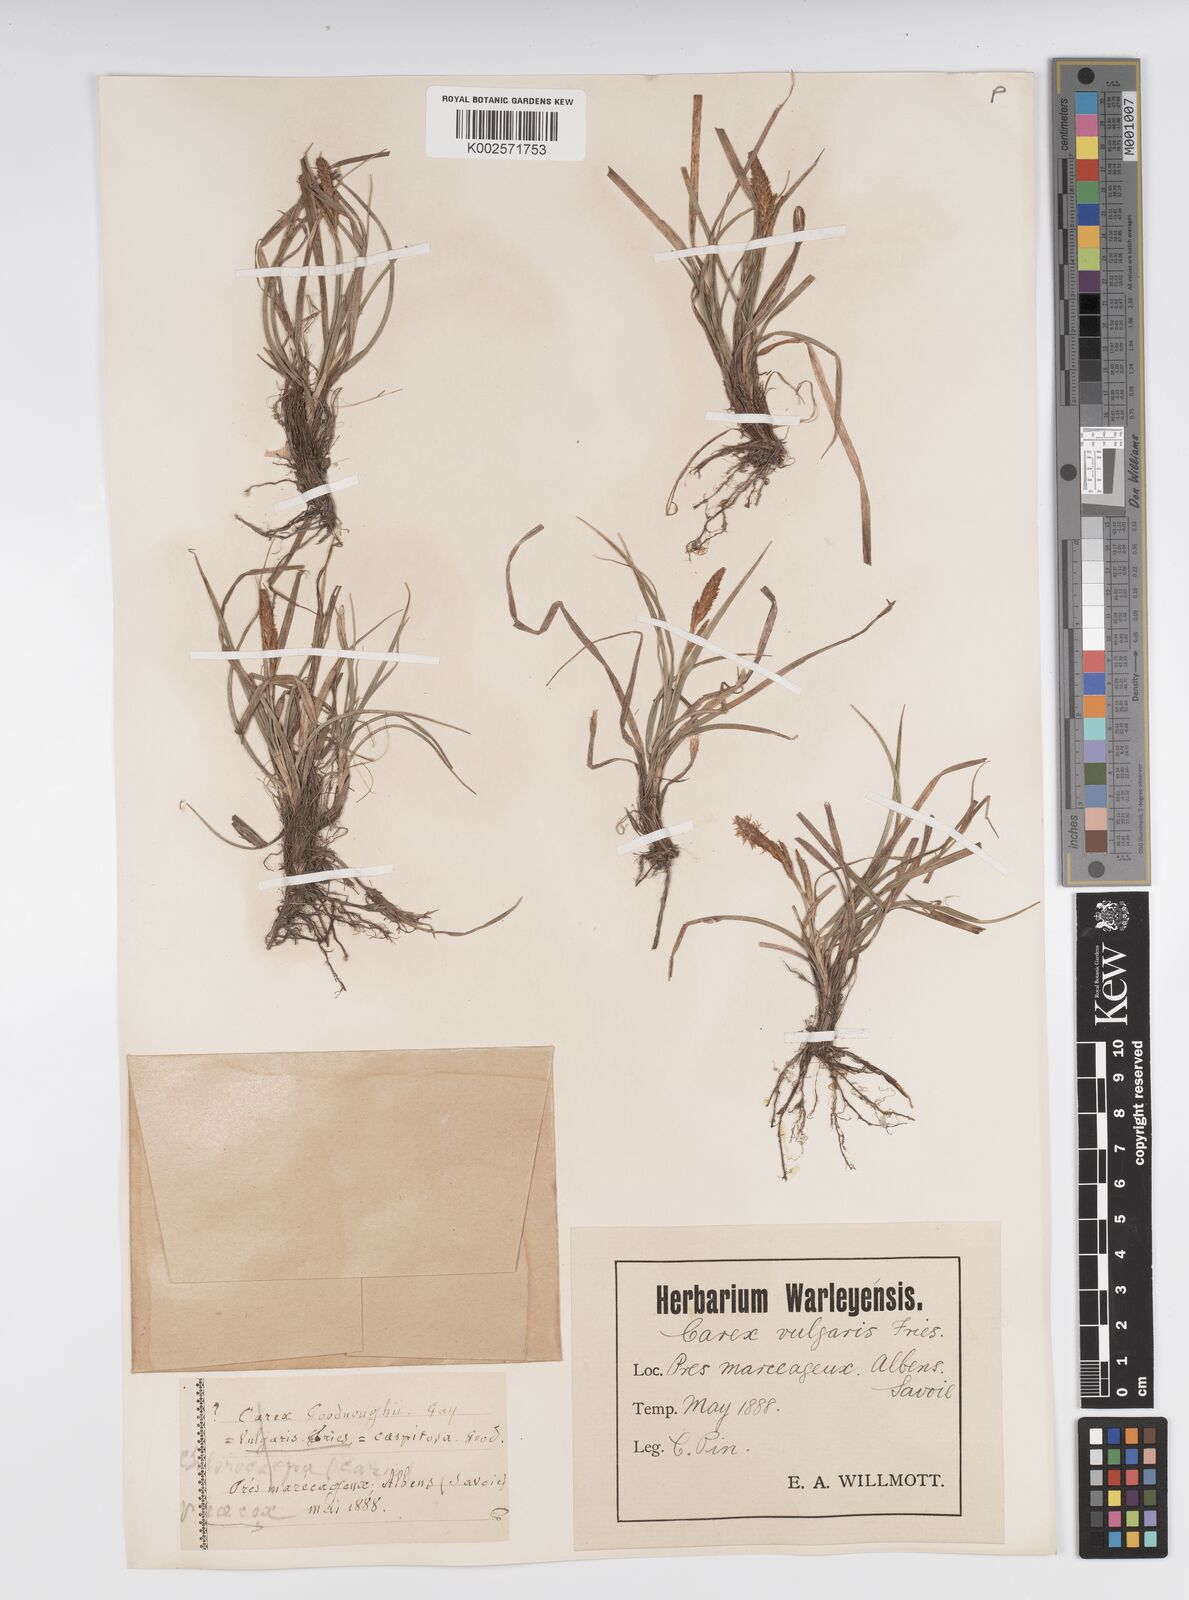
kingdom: Plantae
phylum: Tracheophyta
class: Liliopsida
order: Poales
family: Cyperaceae
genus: Carex
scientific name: Carex caryophyllea
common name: Spring sedge
